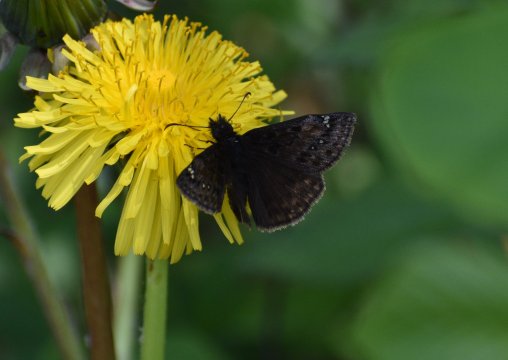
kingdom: Animalia
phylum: Arthropoda
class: Insecta
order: Lepidoptera
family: Hesperiidae
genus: Gesta
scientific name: Gesta
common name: Juvenal's Duskywing
